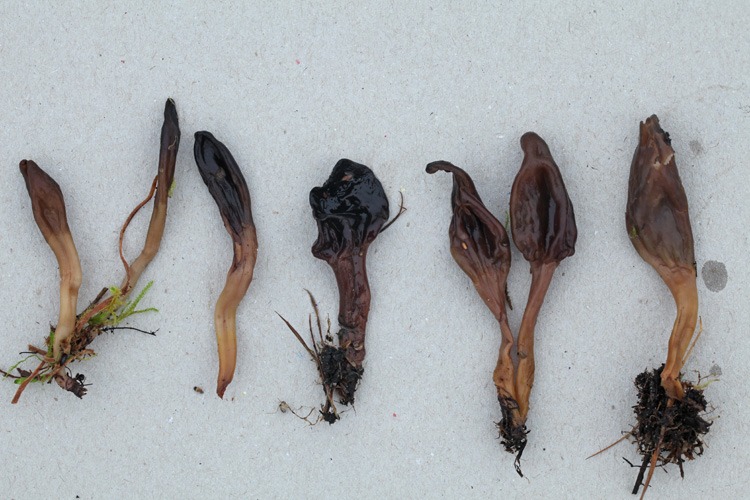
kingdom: Fungi
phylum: Ascomycota
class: Leotiomycetes
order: Leotiales
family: Leotiaceae
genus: Microglossum
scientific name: Microglossum olivaceum
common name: olivenbrun farvetunge
